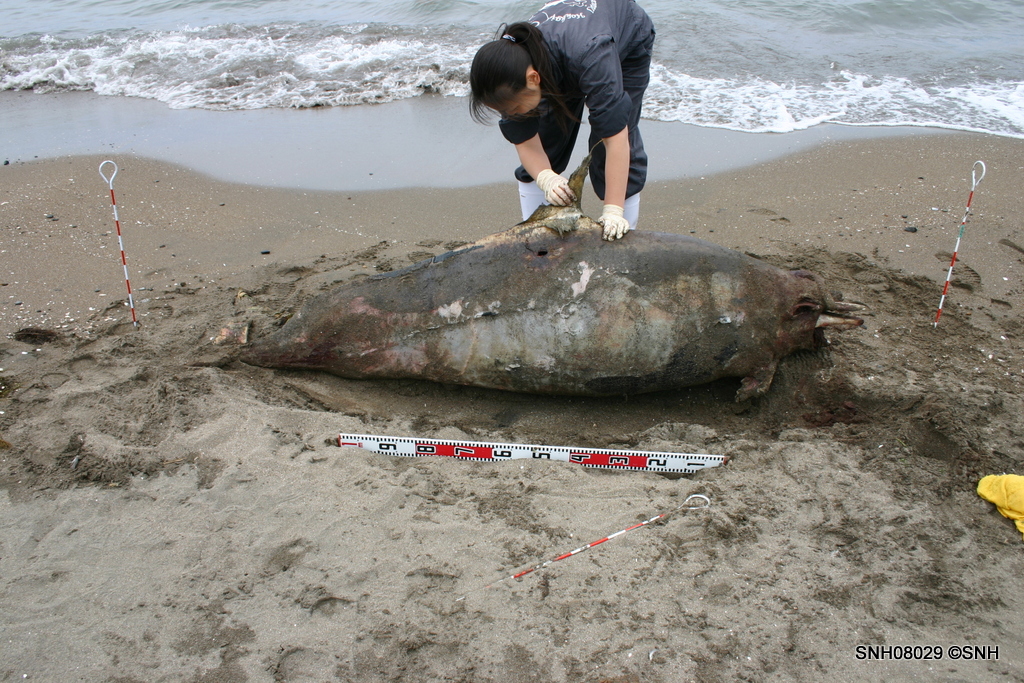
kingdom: Animalia
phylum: Chordata
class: Mammalia
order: Cetacea
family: Phocoenidae
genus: Phocoenoides
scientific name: Phocoenoides dalli
